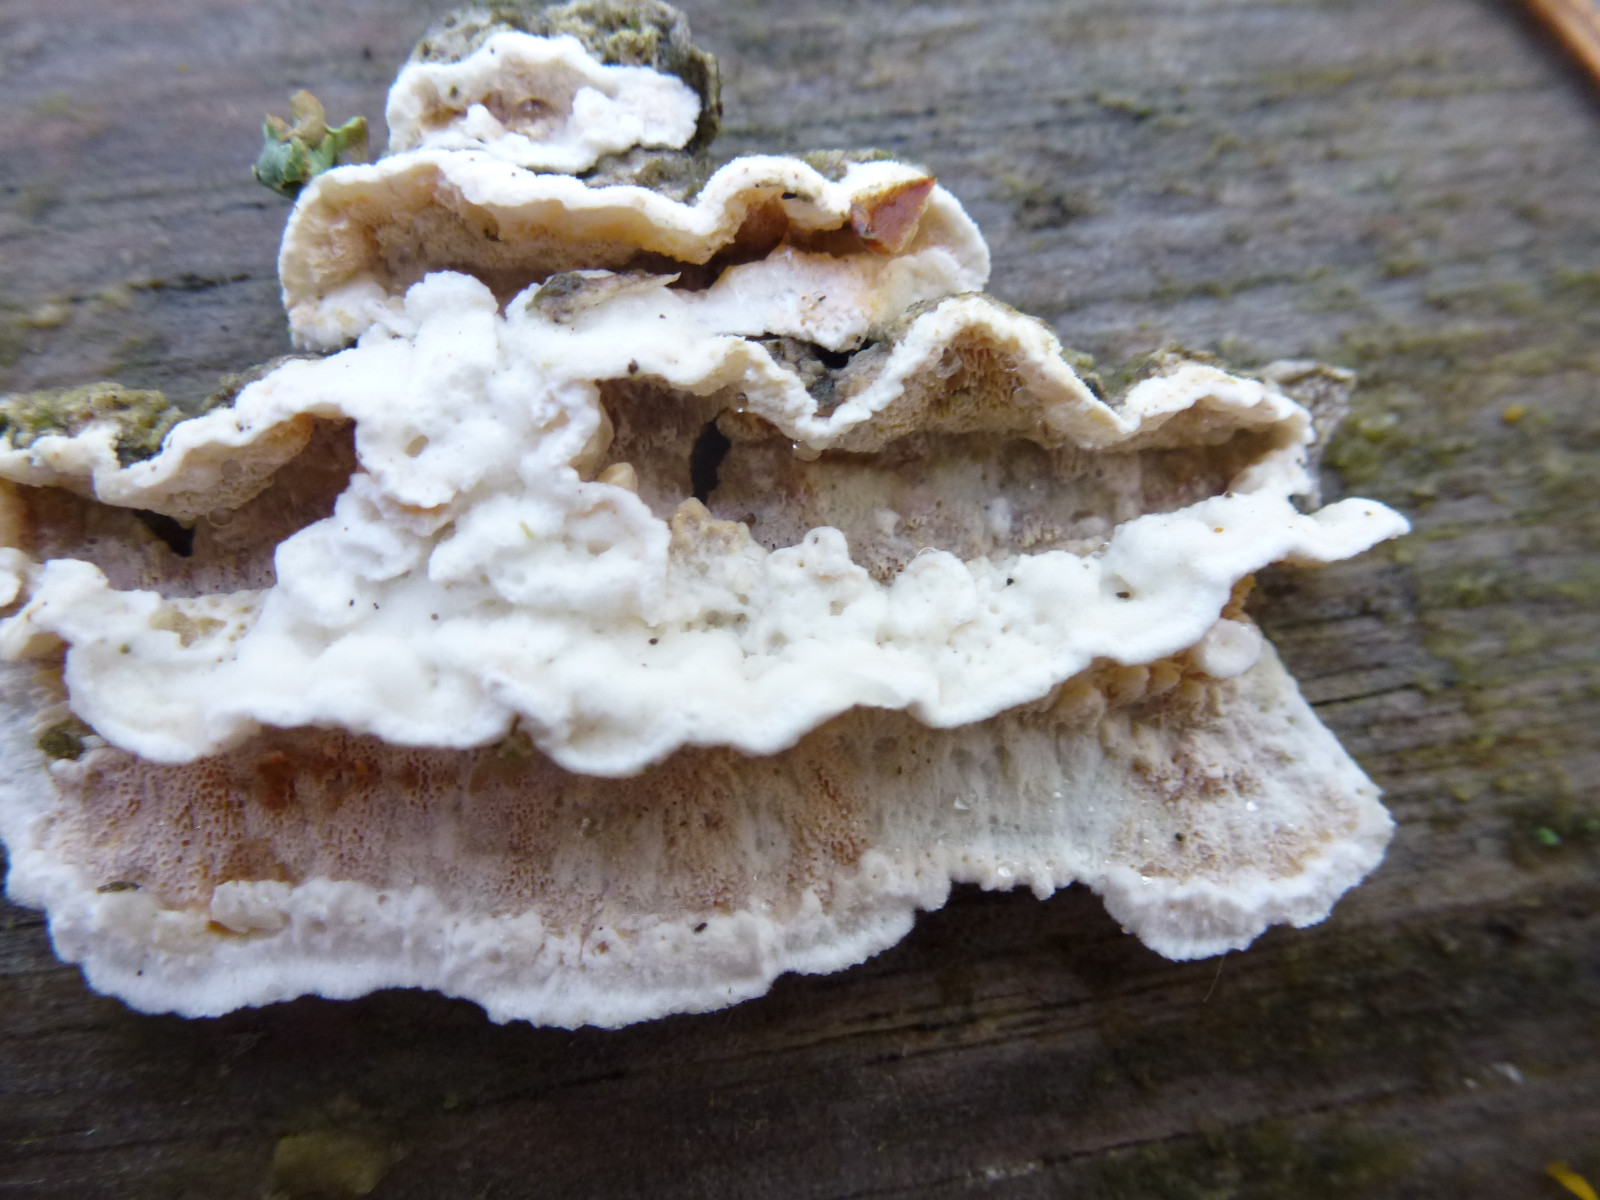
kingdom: Fungi
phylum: Basidiomycota
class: Agaricomycetes
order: Polyporales
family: Meruliaceae
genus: Phlebia
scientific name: Phlebia tremellosa
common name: bævrende åresvamp
